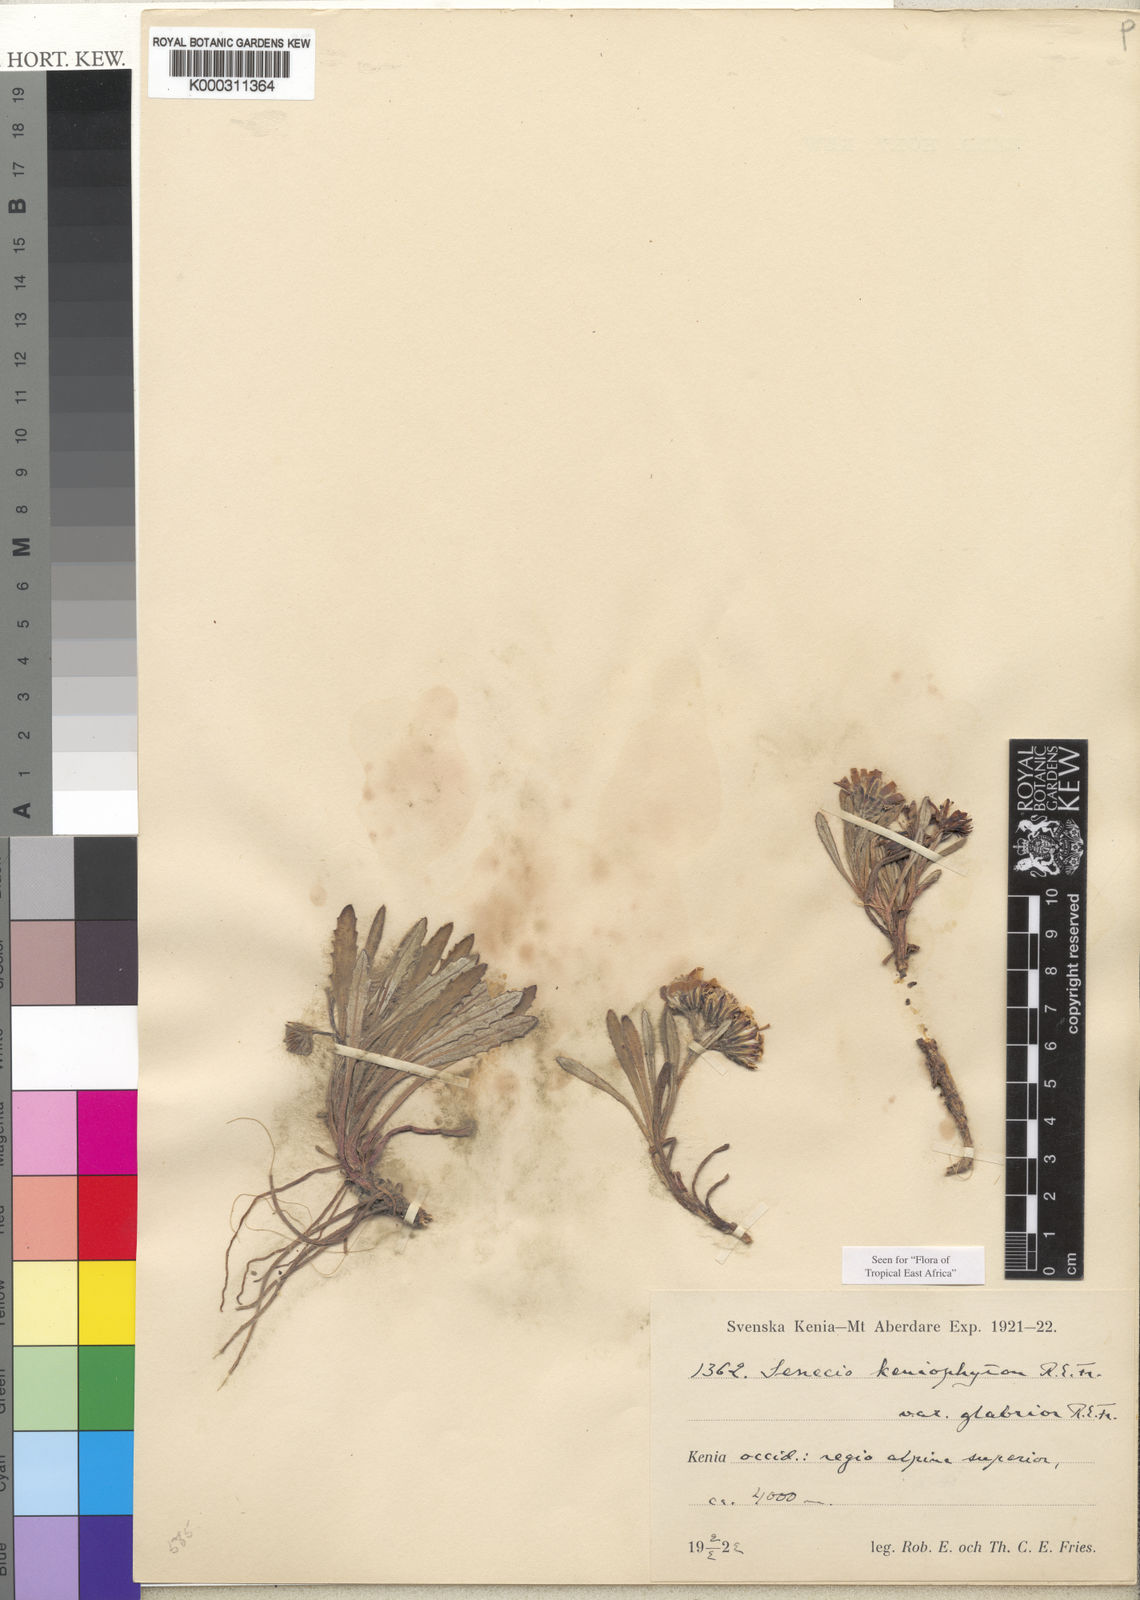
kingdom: Plantae
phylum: Tracheophyta
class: Magnoliopsida
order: Asterales
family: Asteraceae
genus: Senecio
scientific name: Senecio keniophytum
